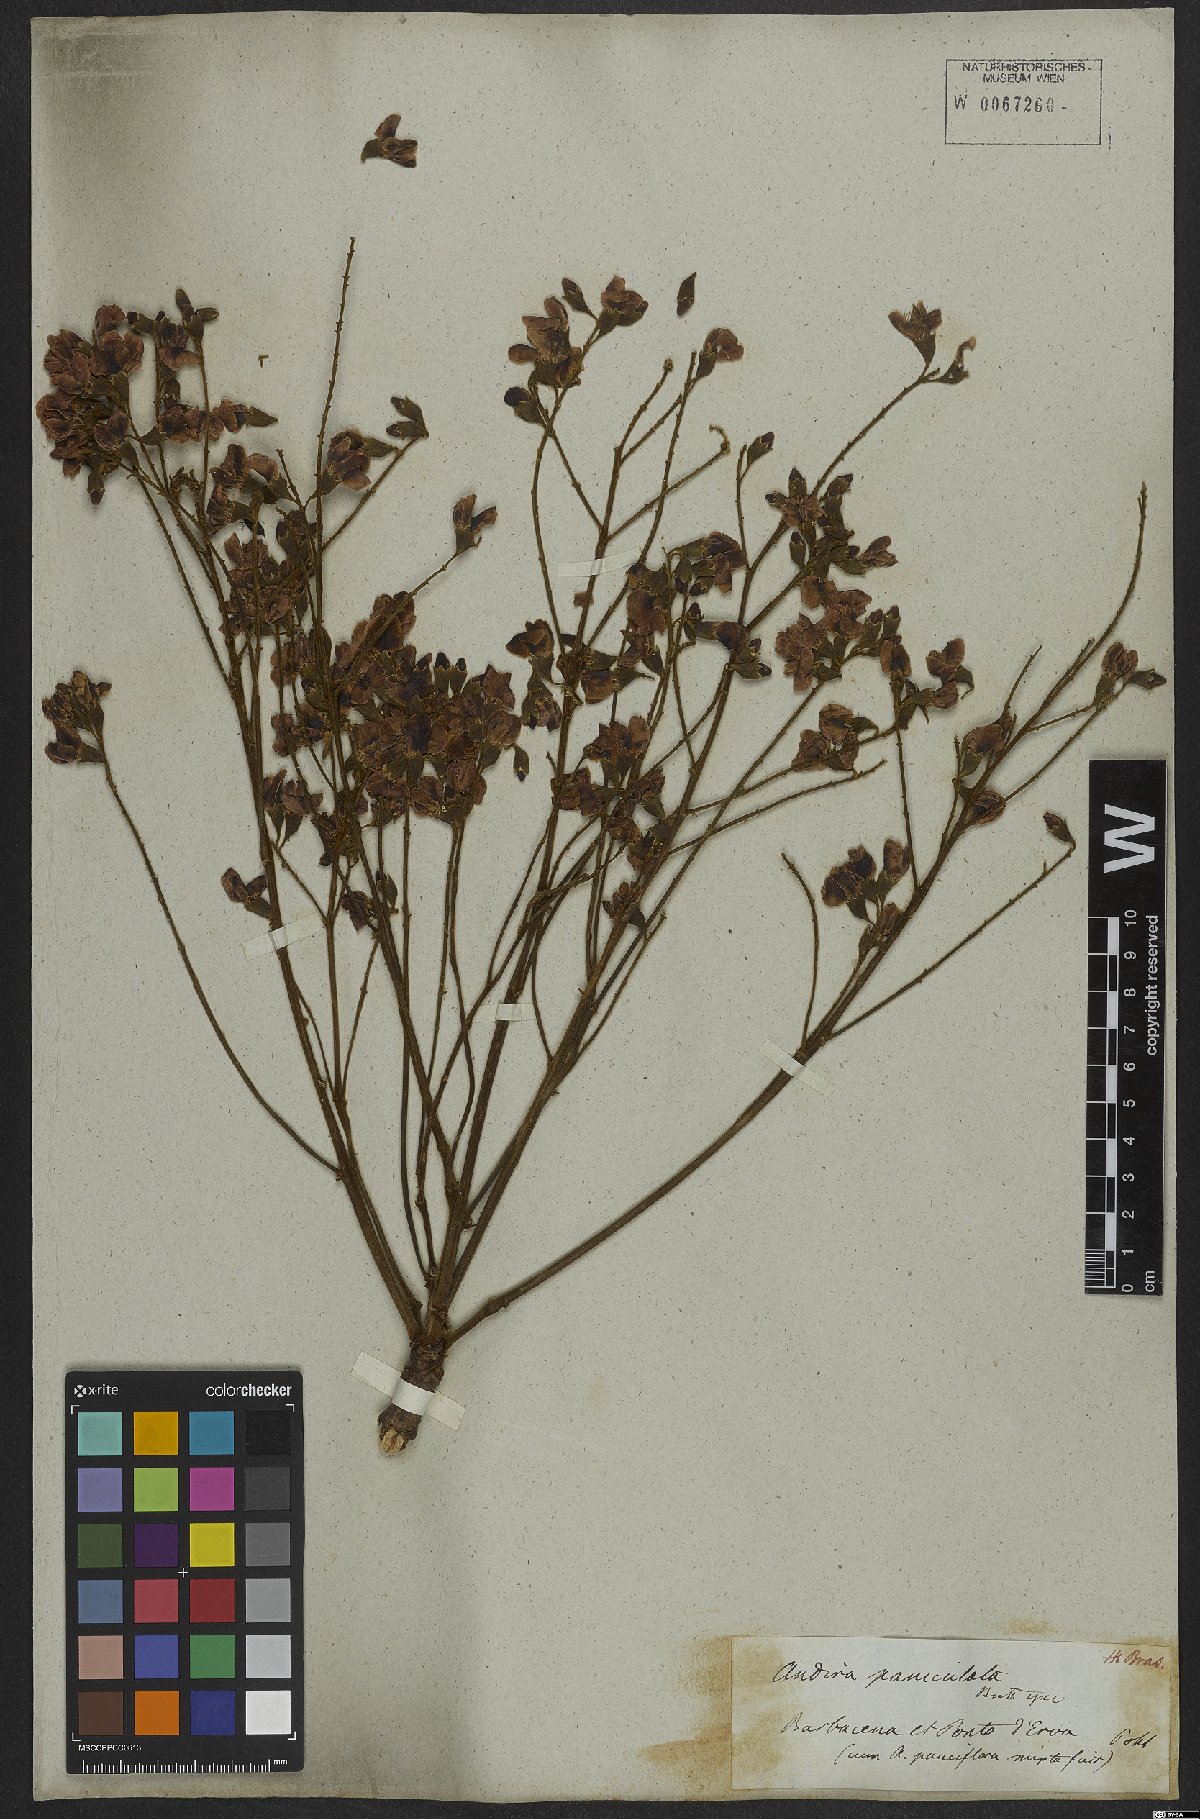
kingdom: Plantae
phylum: Tracheophyta
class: Magnoliopsida
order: Fabales
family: Fabaceae
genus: Andira
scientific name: Andira vermifuga
